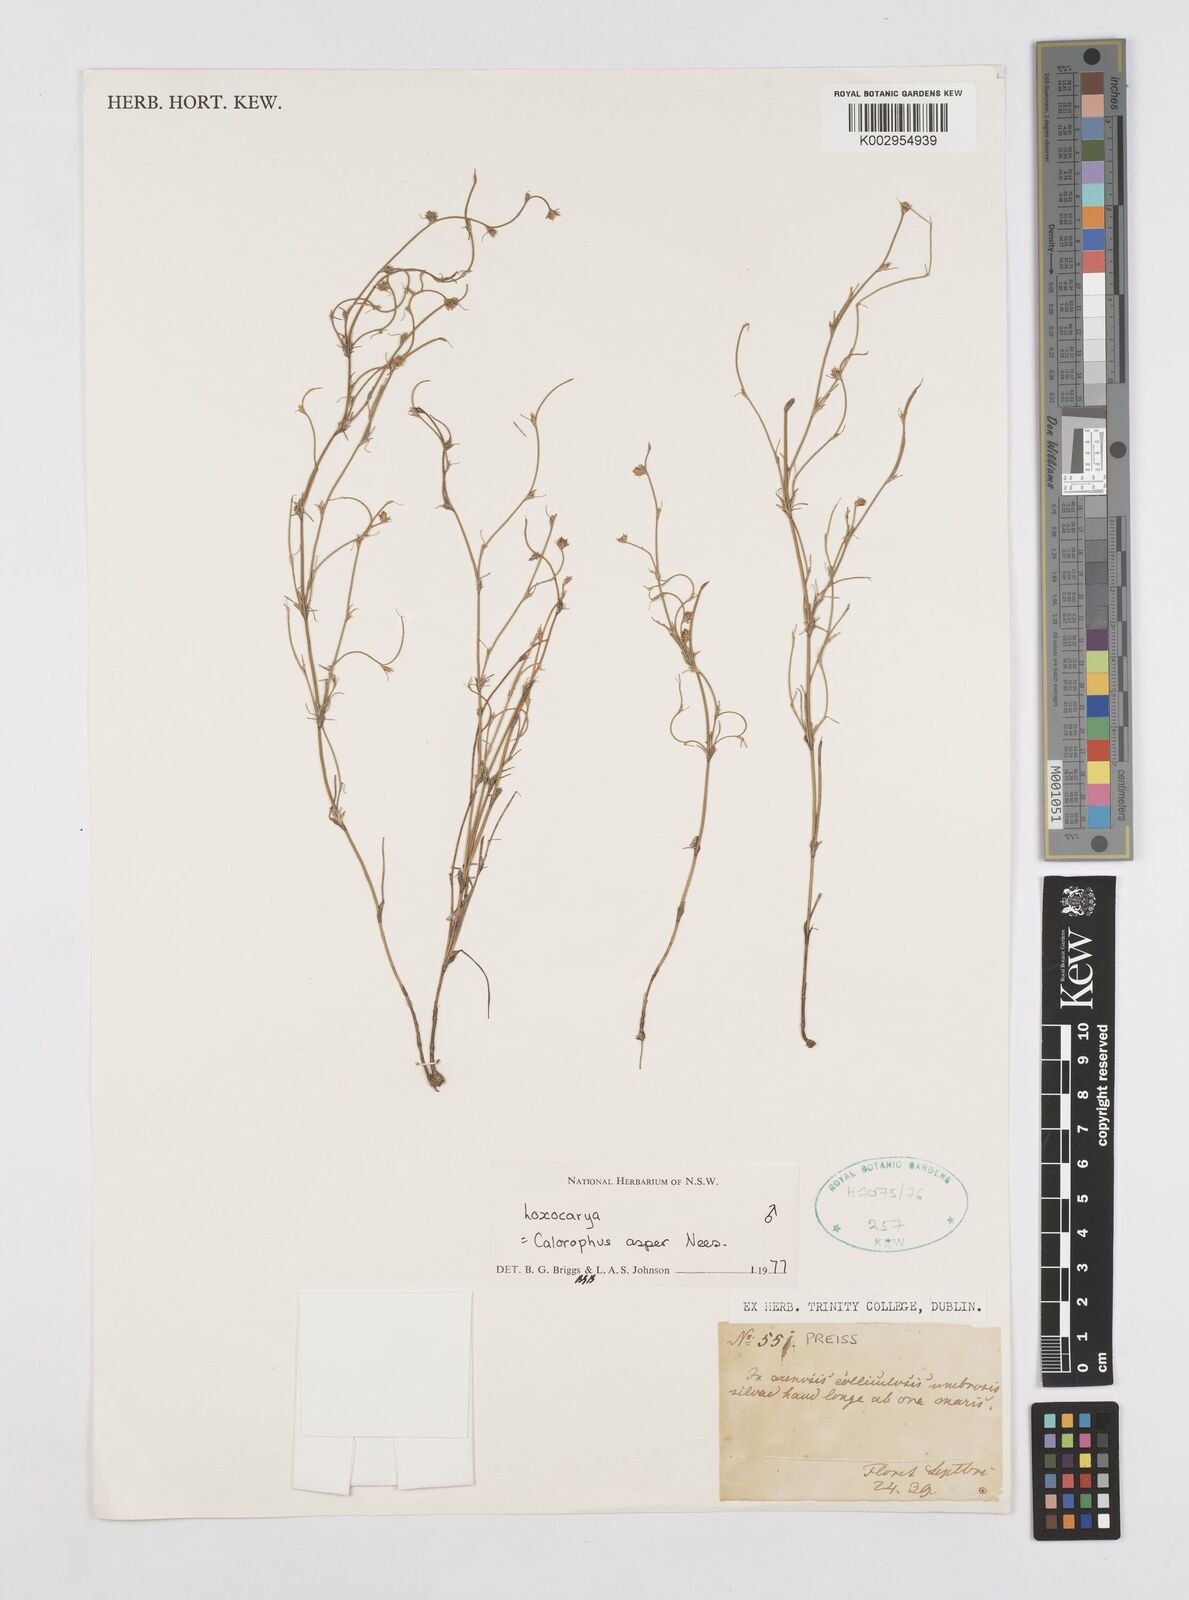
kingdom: Plantae
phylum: Tracheophyta
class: Liliopsida
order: Poales
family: Restionaceae
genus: Desmocladus
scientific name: Desmocladus asper
